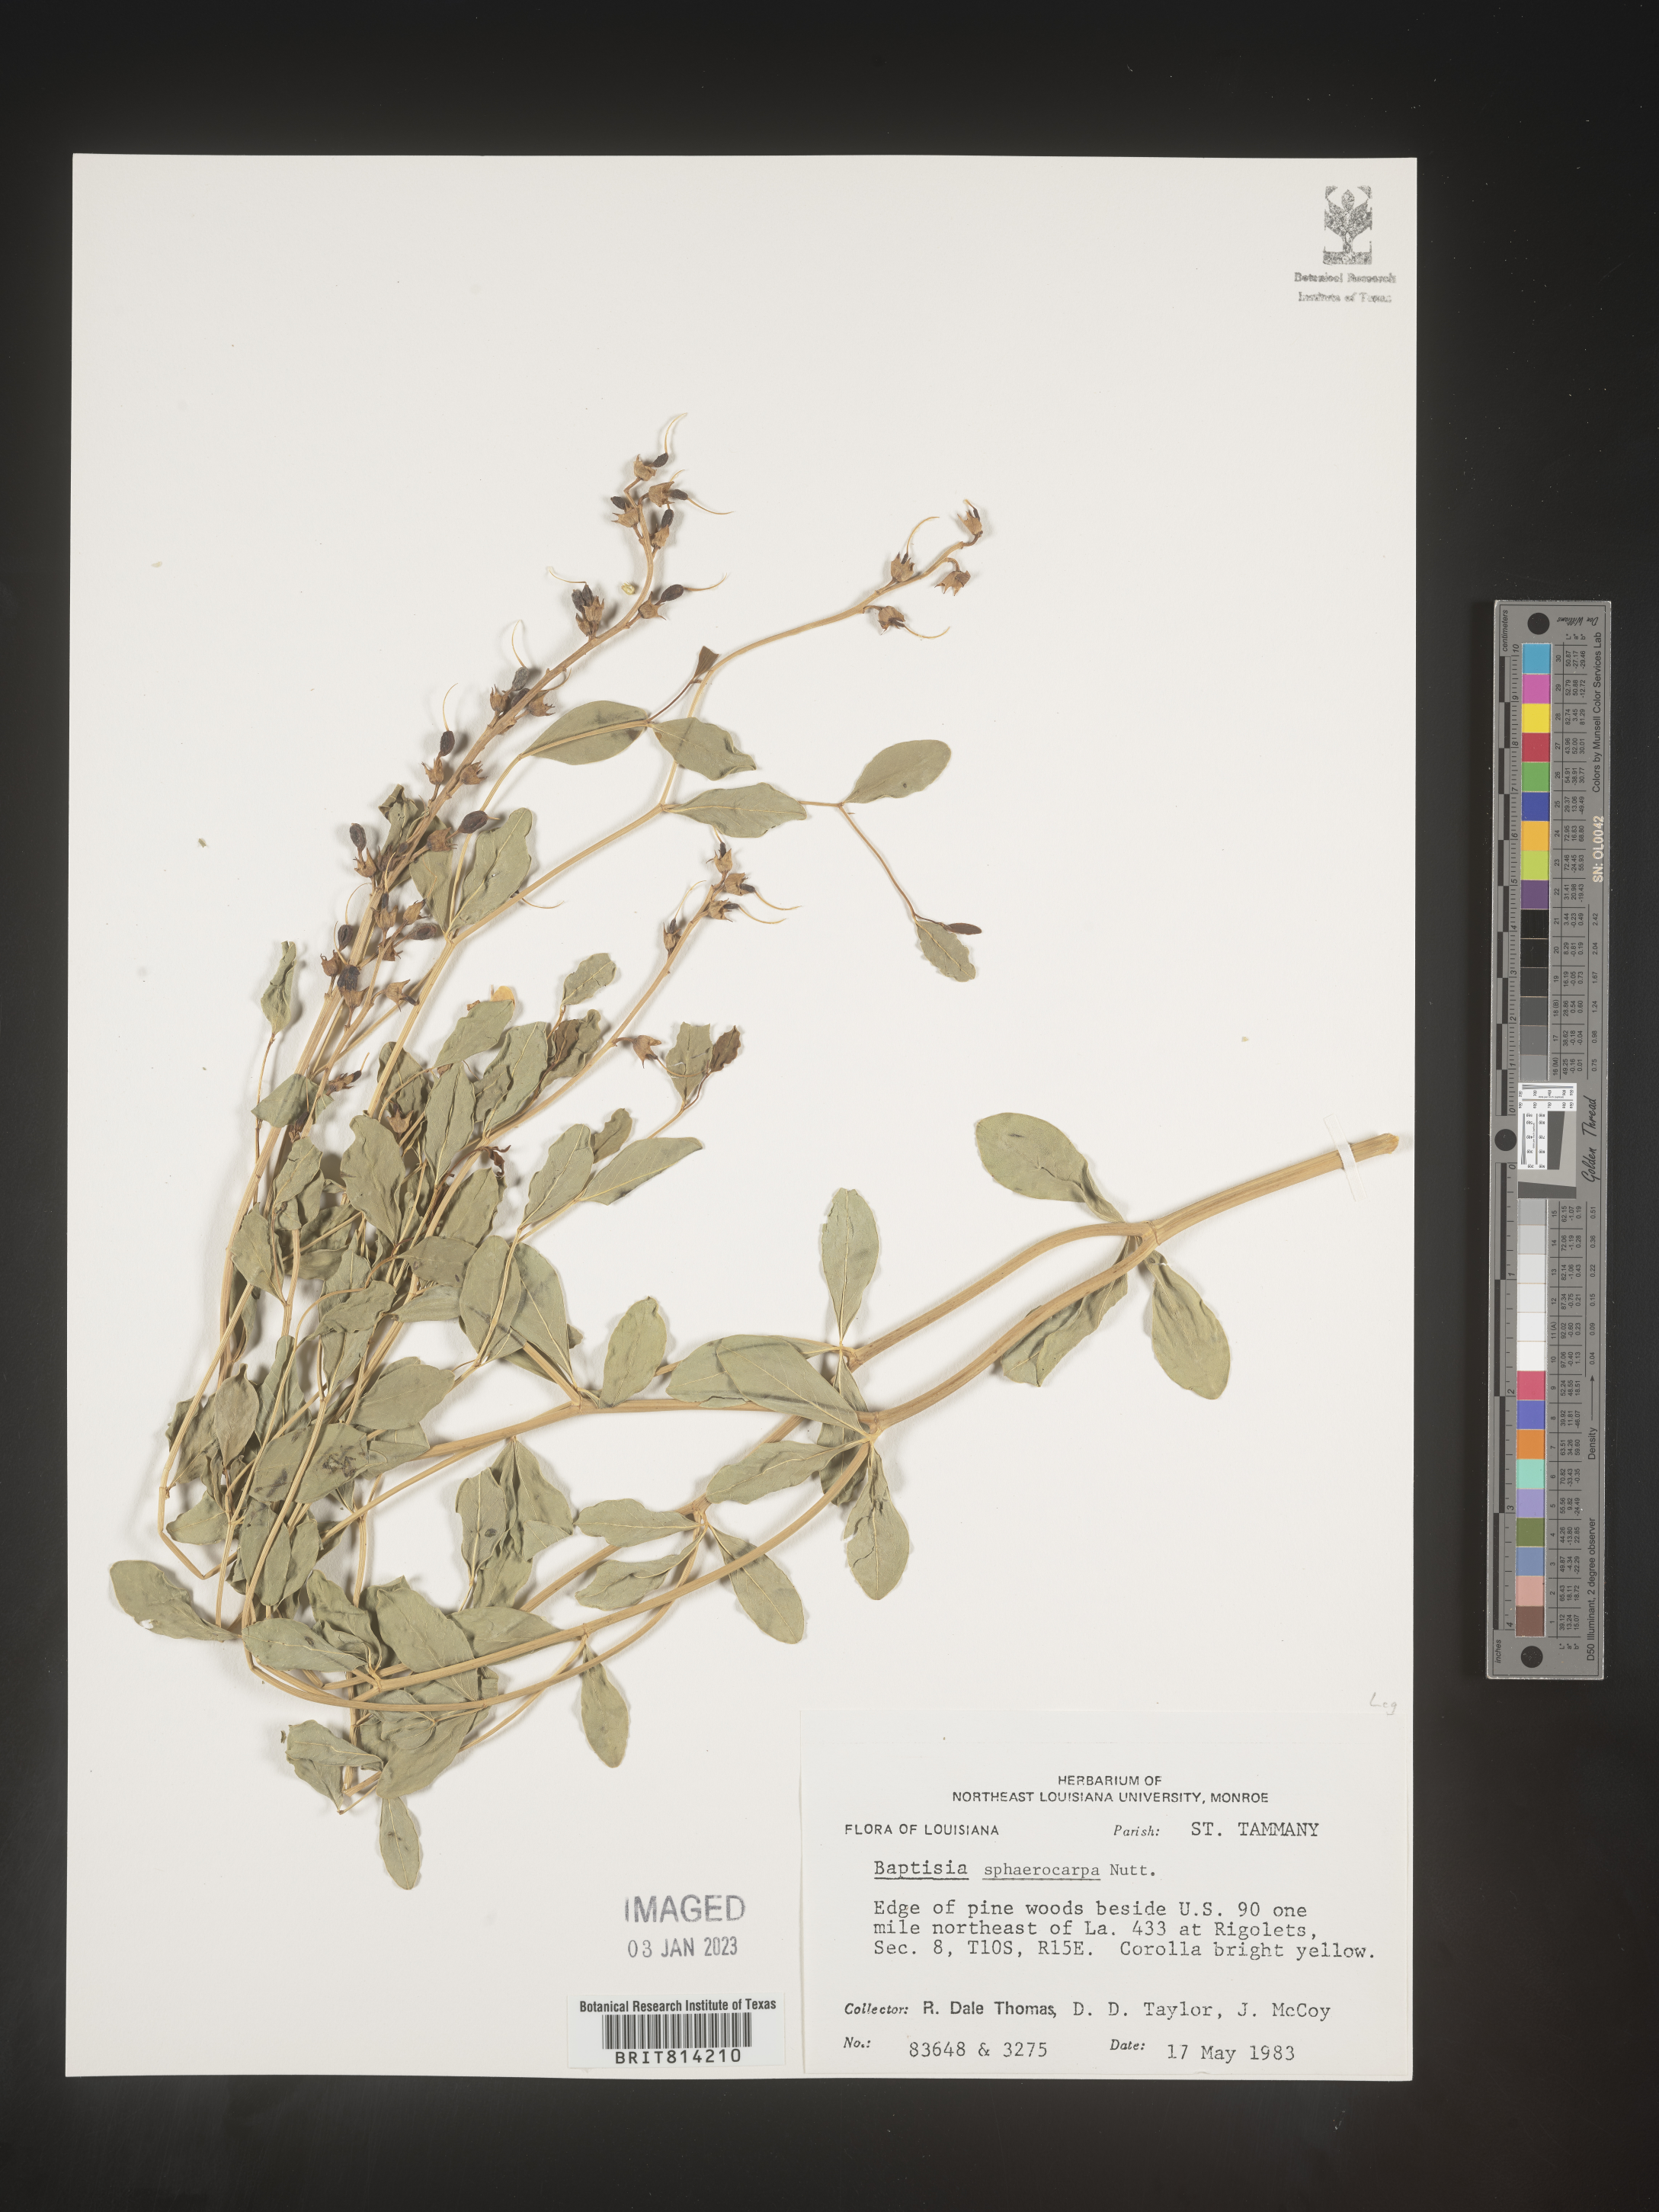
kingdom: Plantae
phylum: Tracheophyta
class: Magnoliopsida
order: Fabales
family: Fabaceae
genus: Baptisia
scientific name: Baptisia sphaerocarpa
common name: Round wild indigo
